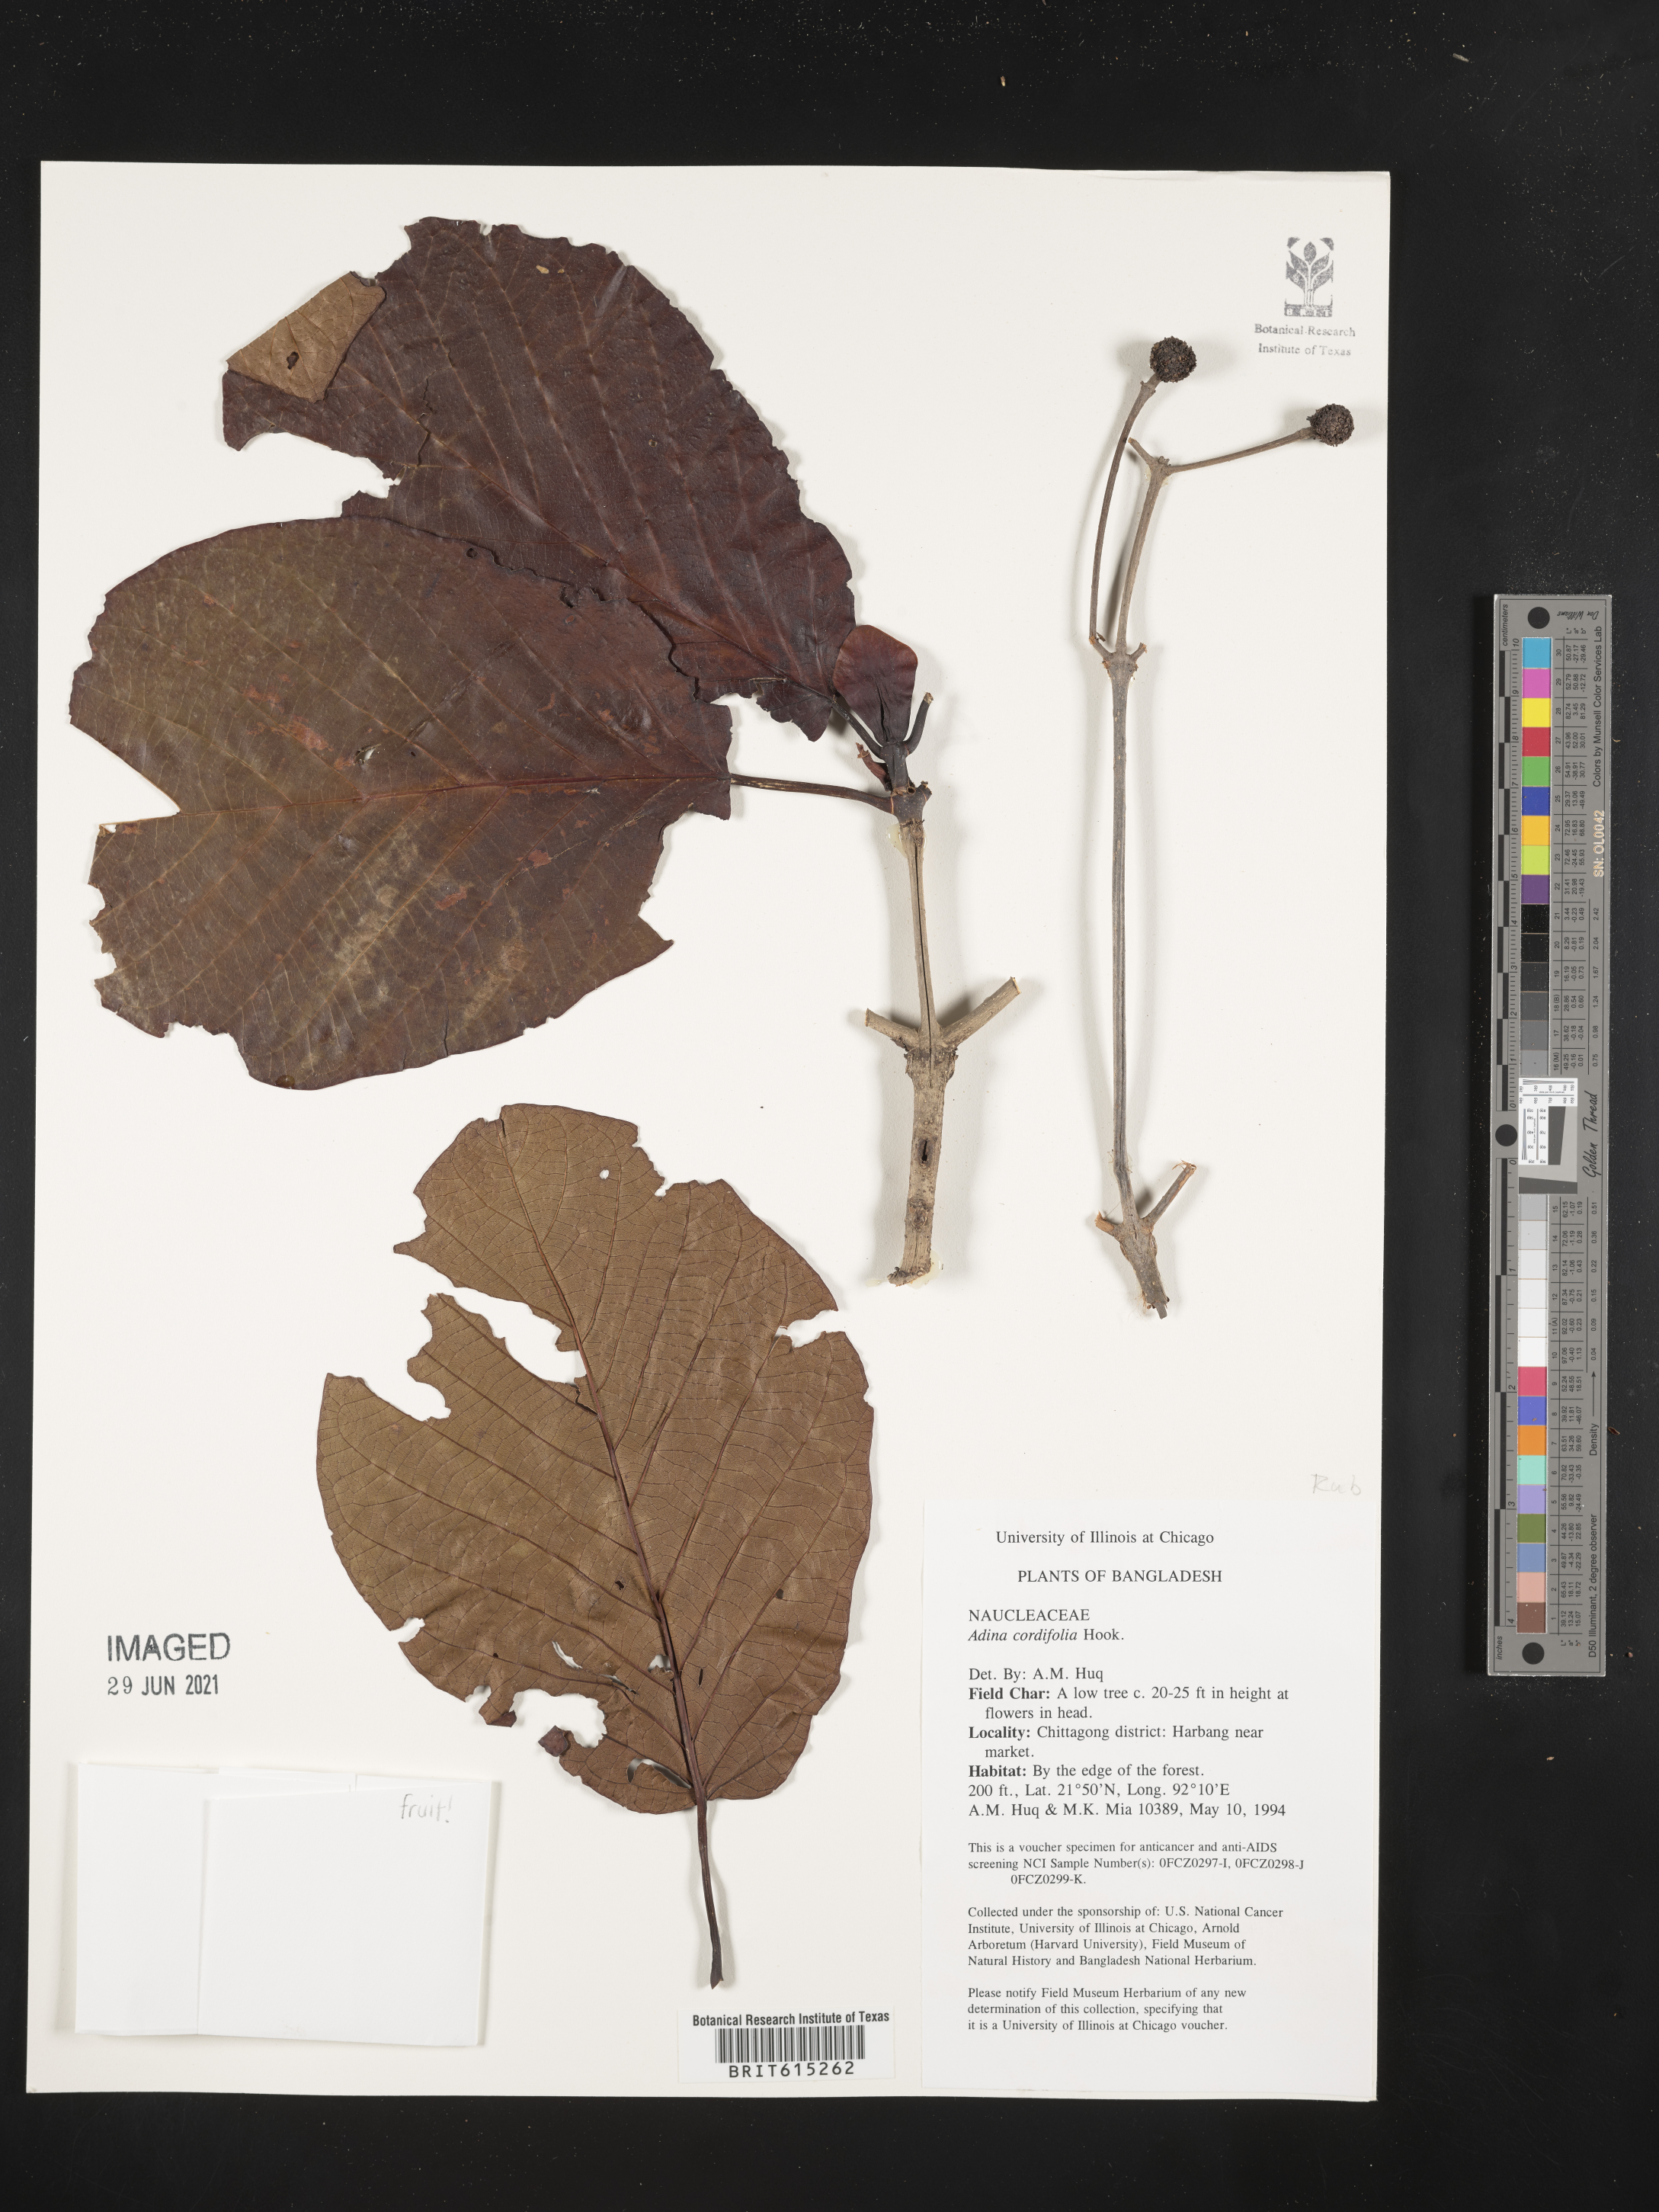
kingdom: Plantae
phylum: Tracheophyta
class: Magnoliopsida
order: Gentianales
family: Rubiaceae
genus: Adina
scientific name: Adina cordifolia
